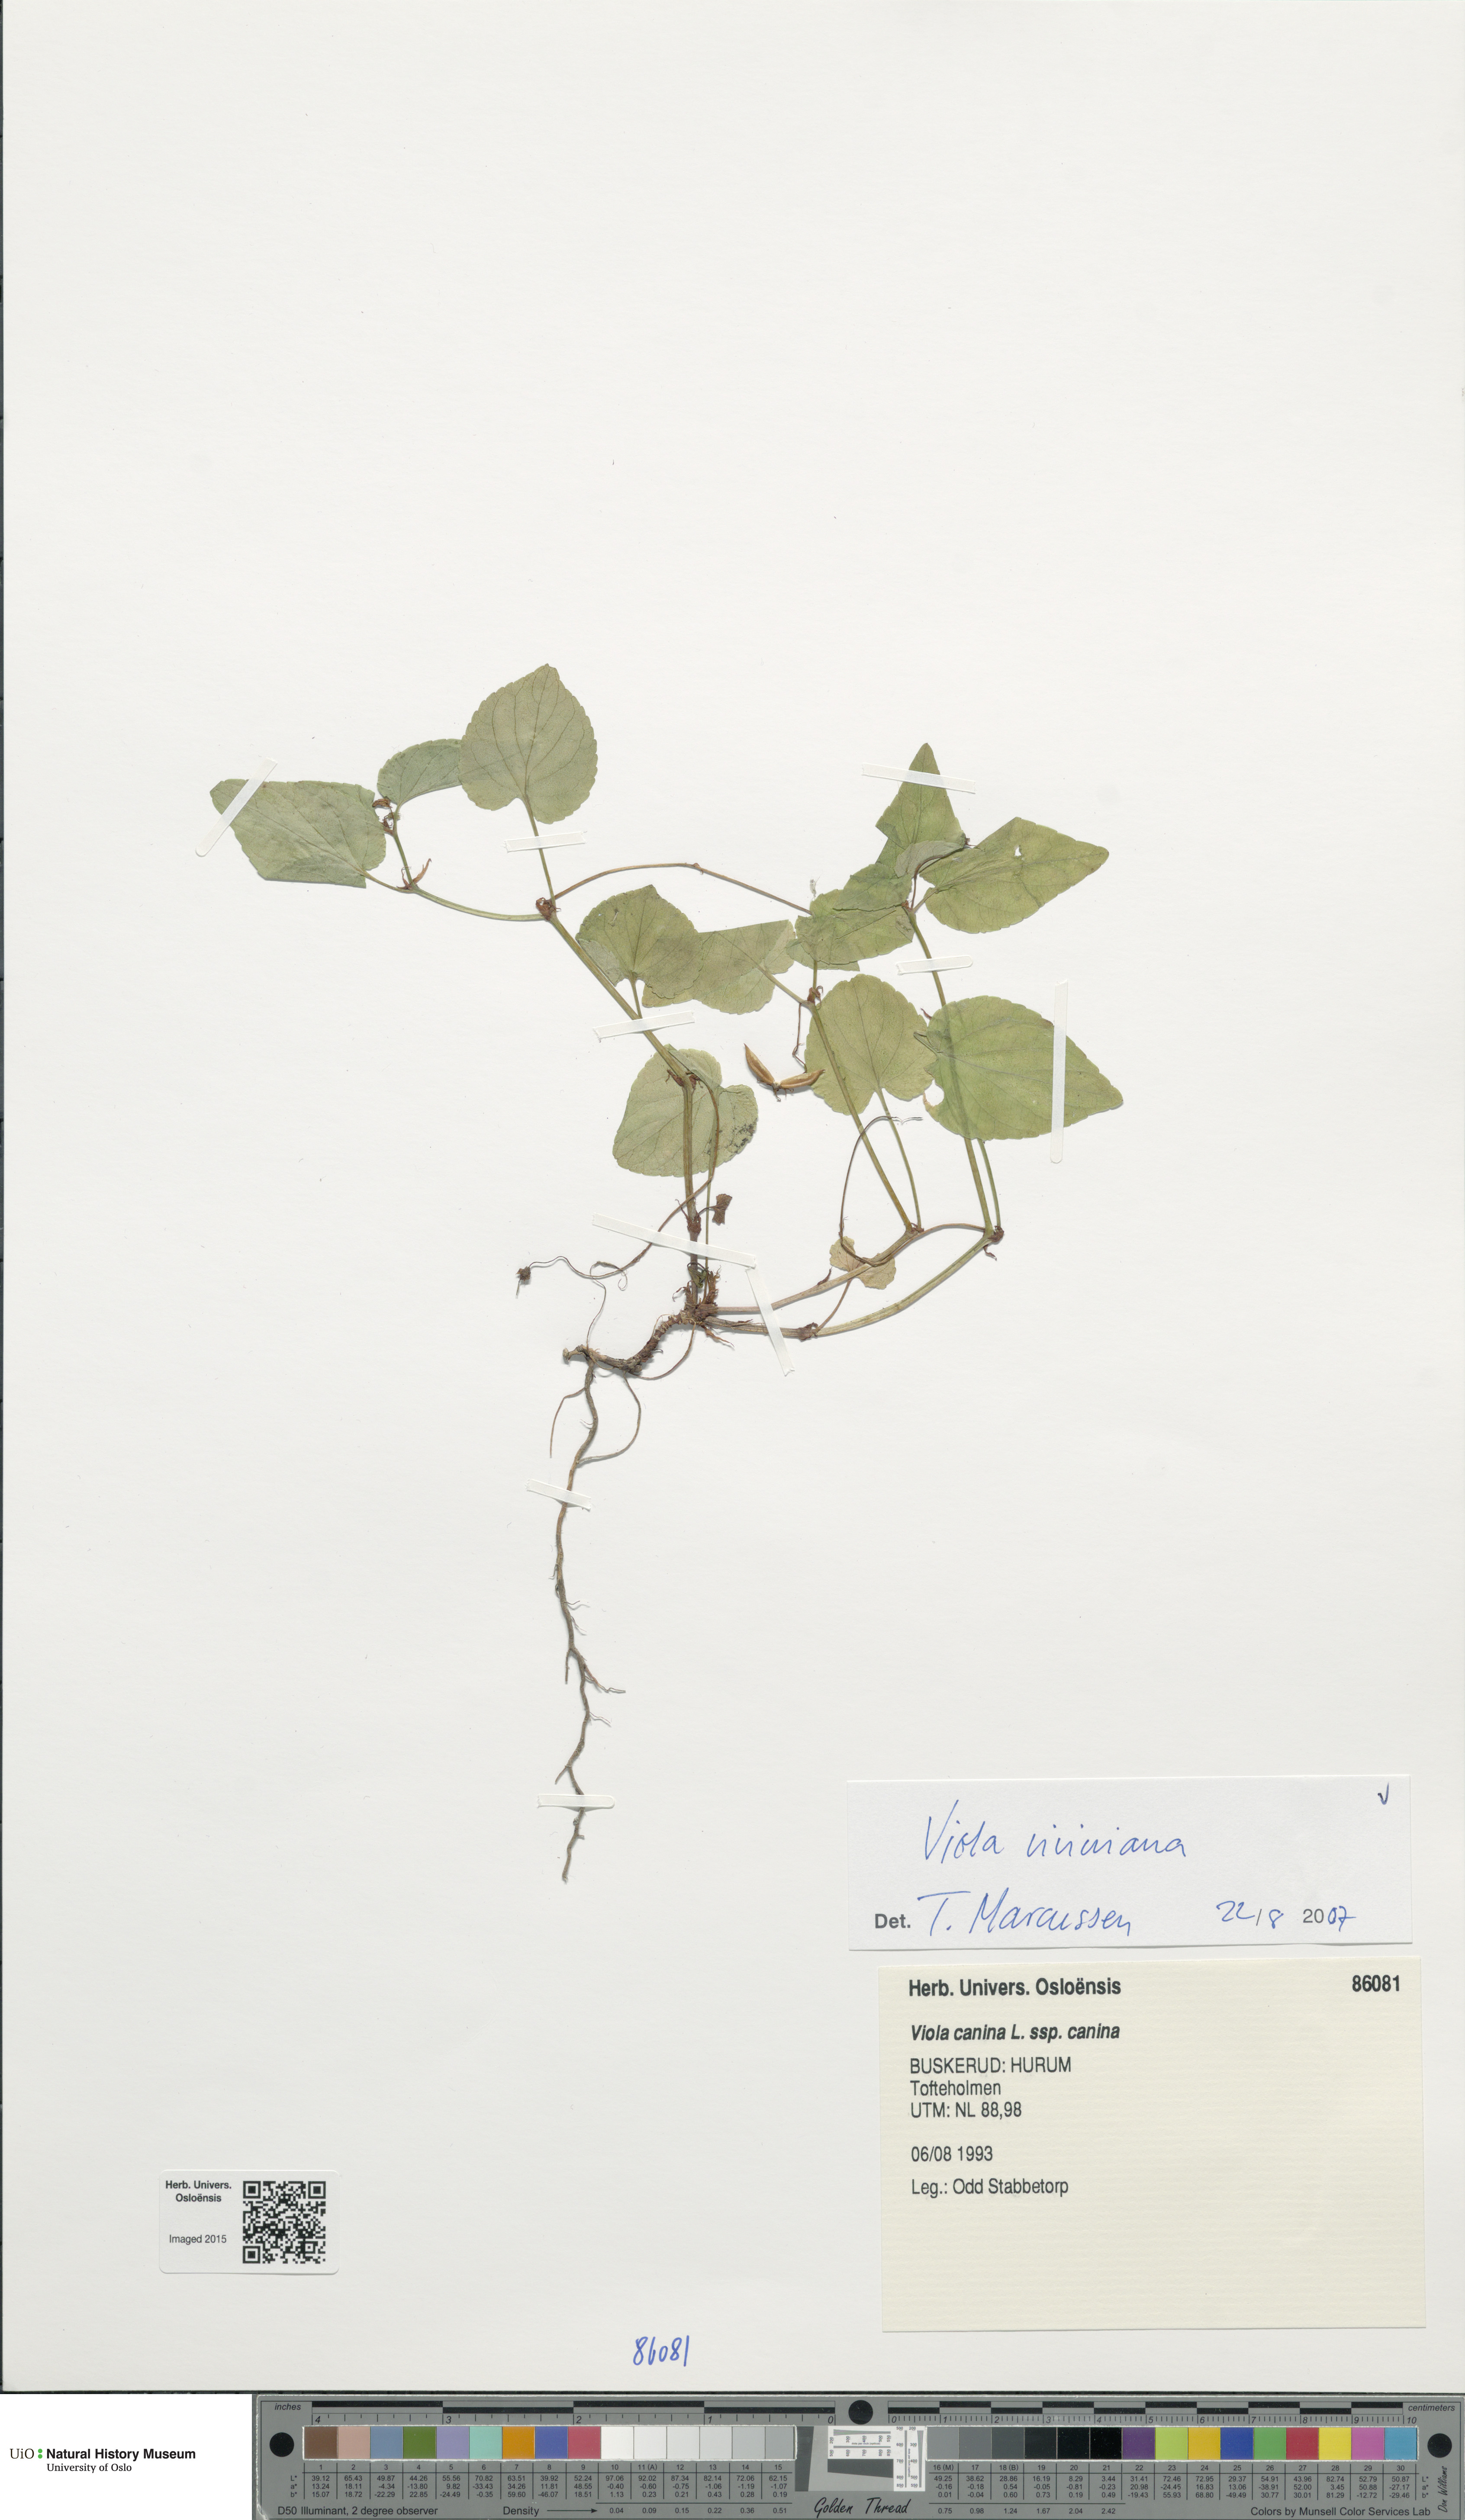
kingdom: Plantae
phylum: Tracheophyta
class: Magnoliopsida
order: Malpighiales
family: Violaceae
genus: Viola
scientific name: Viola riviniana
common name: Common dog-violet
